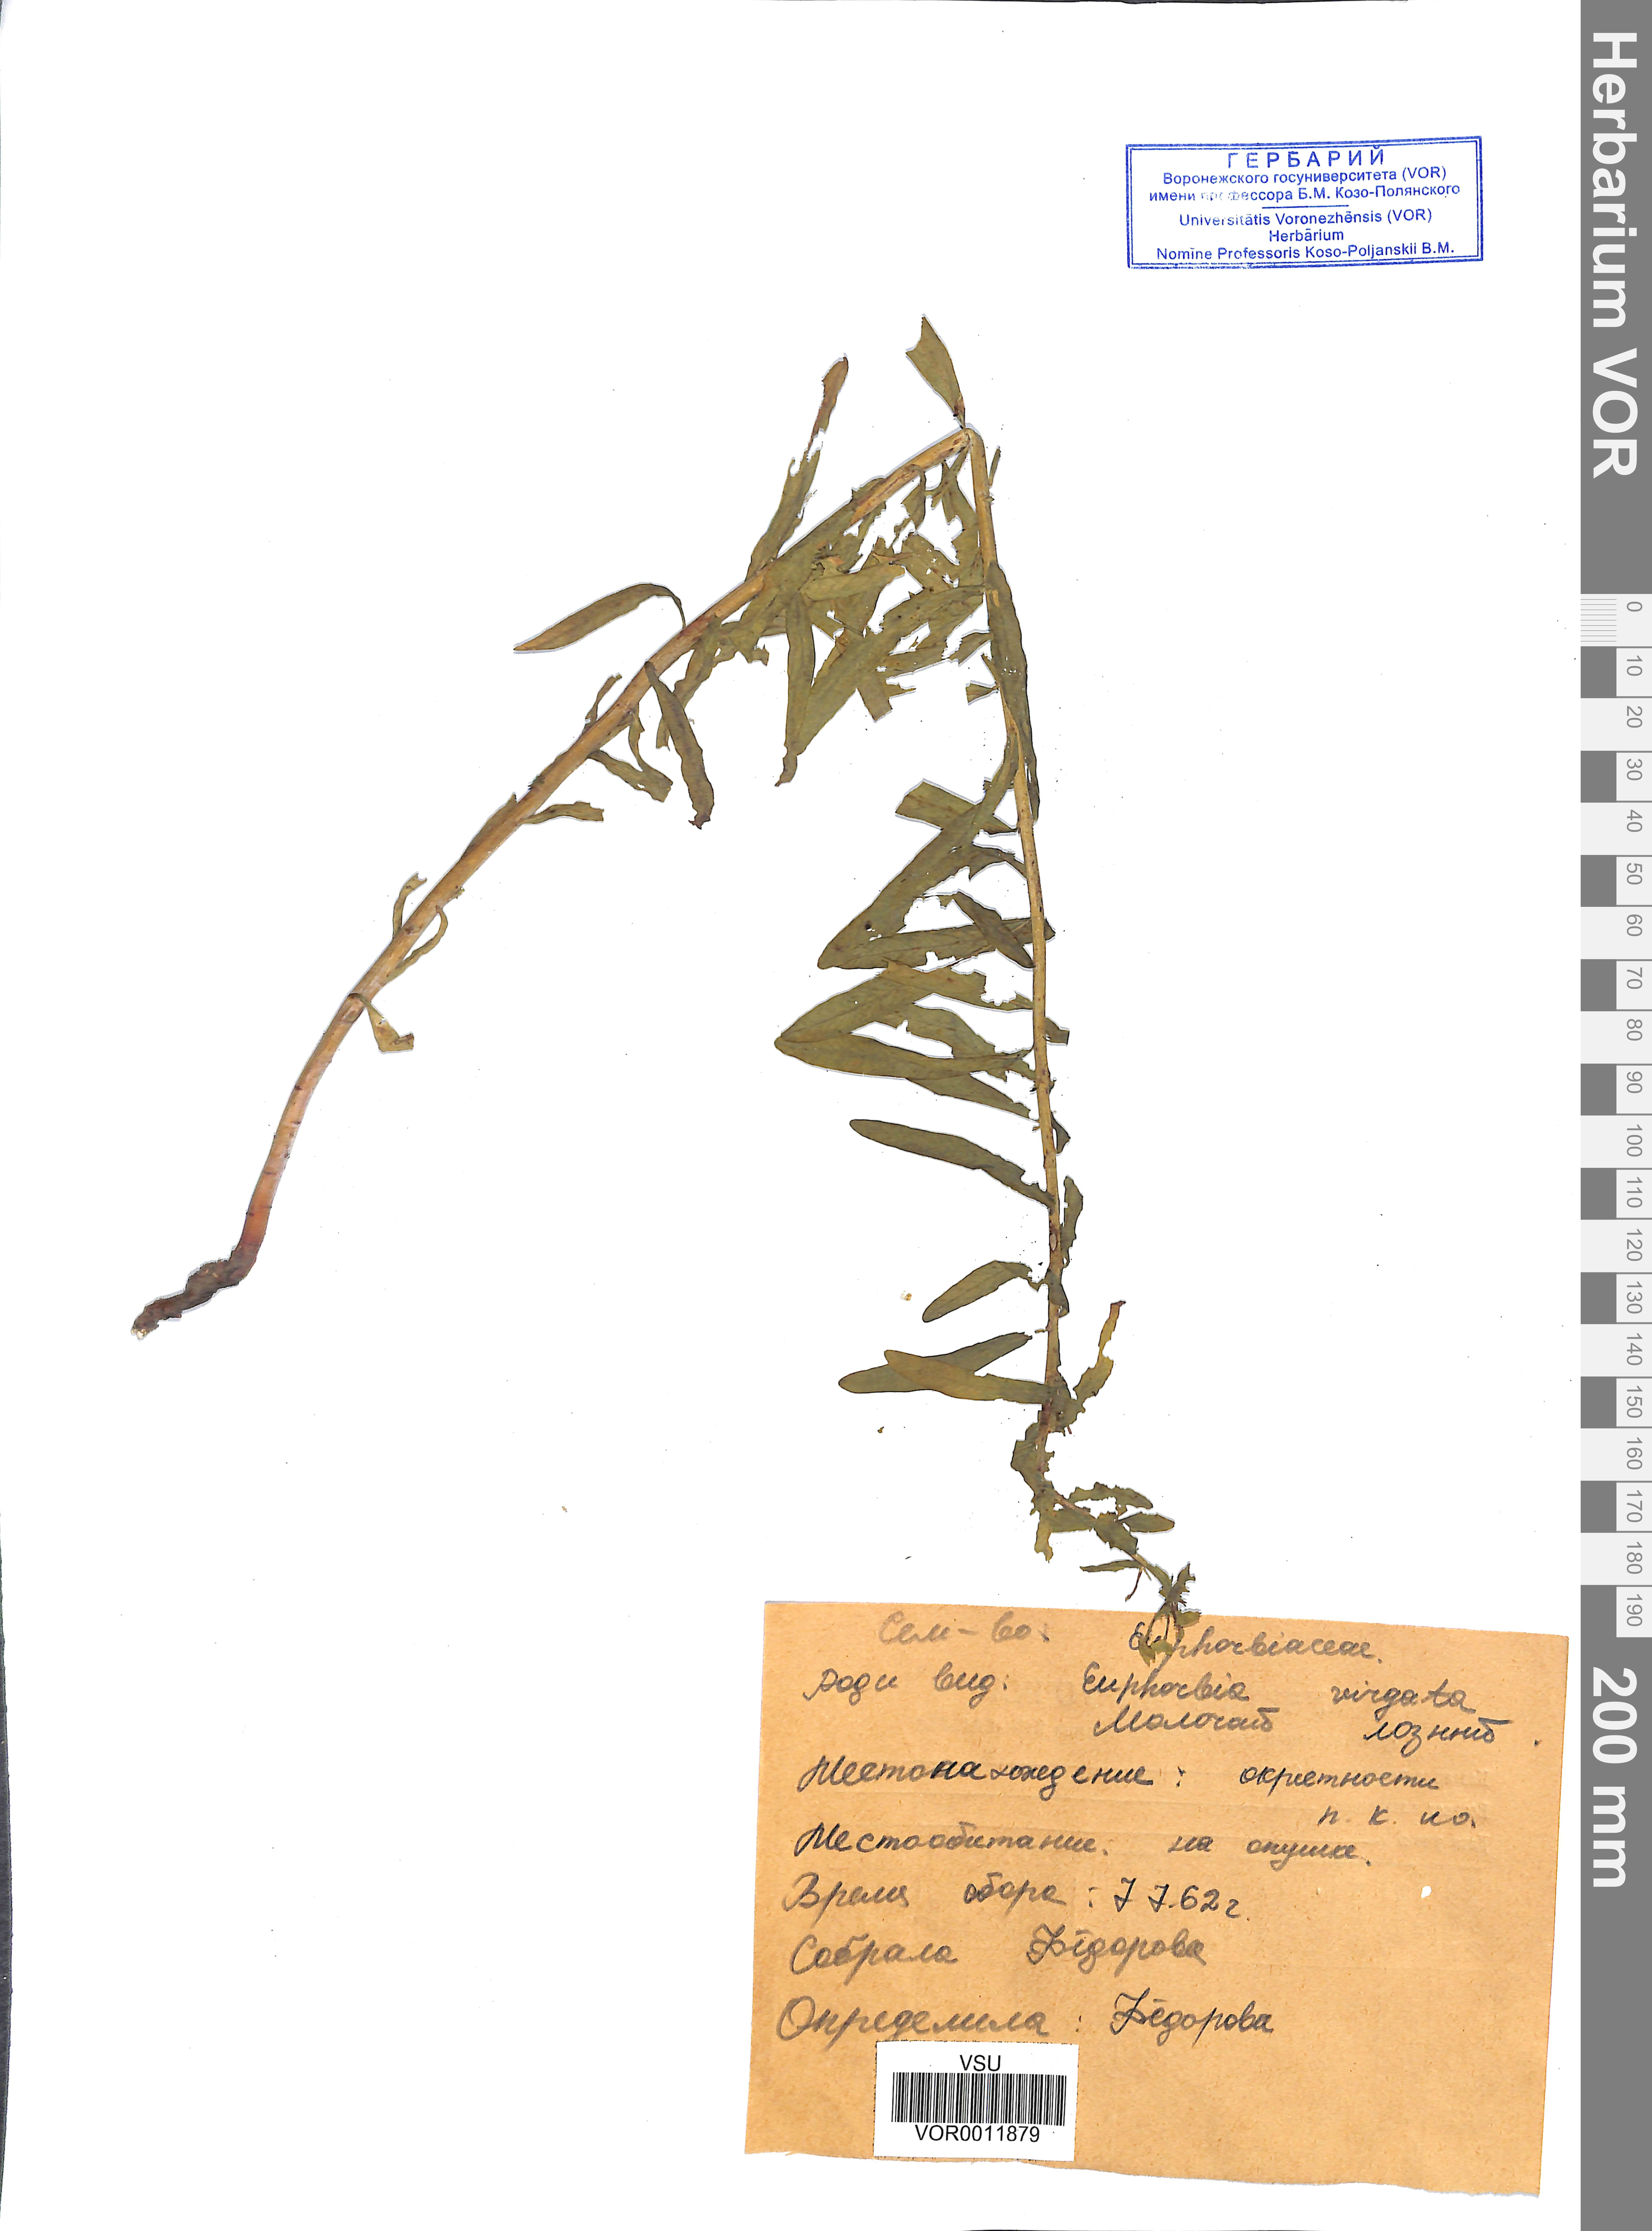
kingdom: Plantae
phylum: Tracheophyta
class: Magnoliopsida
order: Malpighiales
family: Euphorbiaceae
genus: Euphorbia
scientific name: Euphorbia virgata
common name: Leafy spurge
